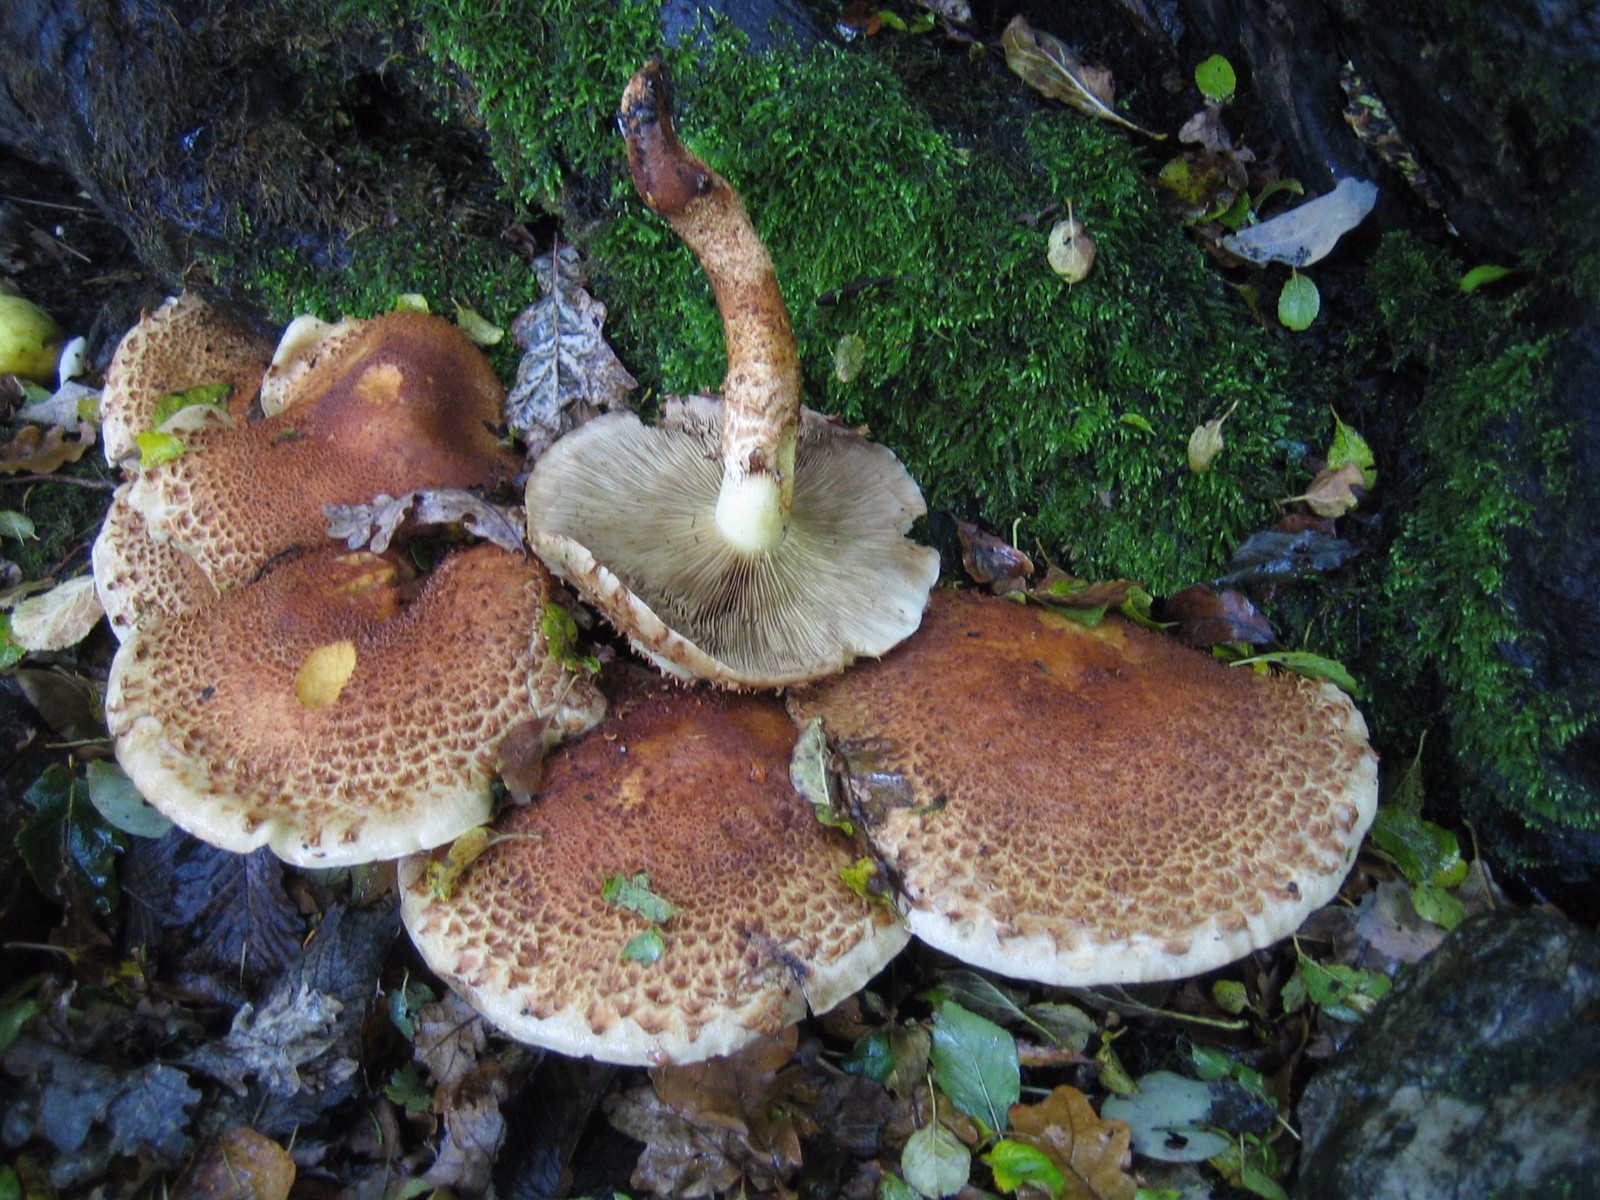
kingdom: Fungi
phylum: Basidiomycota
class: Agaricomycetes
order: Agaricales
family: Strophariaceae
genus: Pholiota
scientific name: Pholiota squarrosa
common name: krumskællet skælhat
